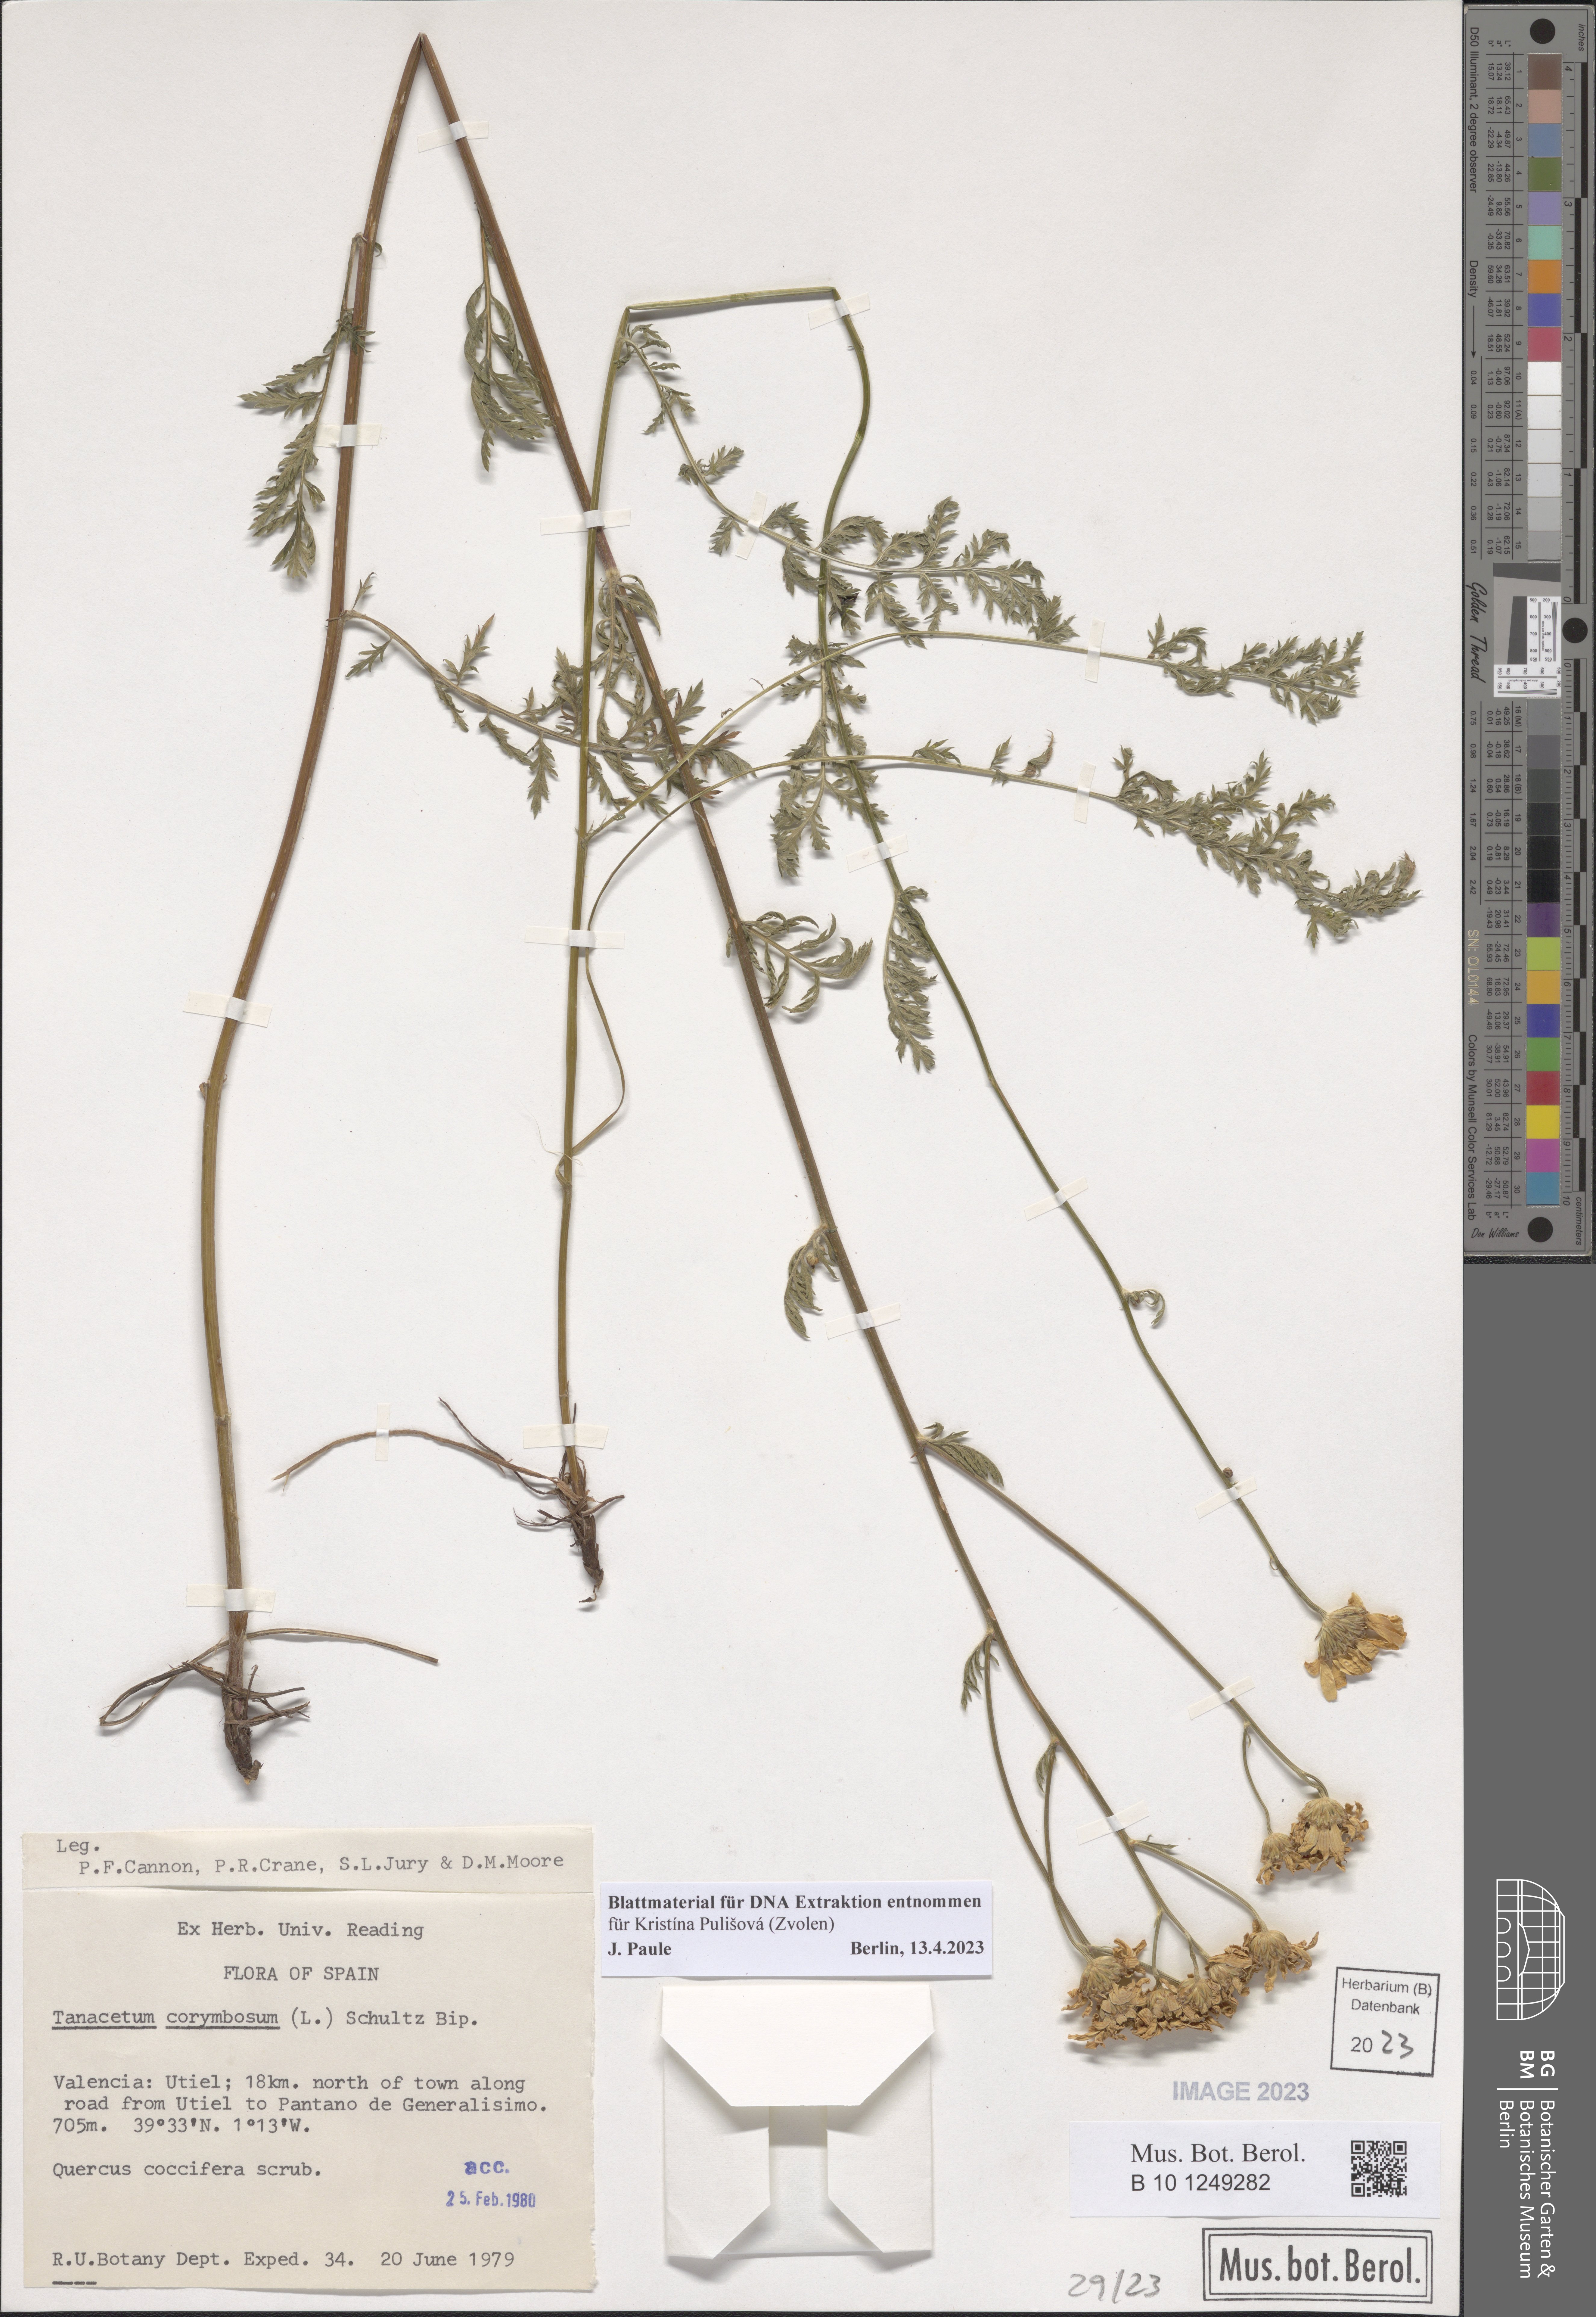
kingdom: Plantae
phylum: Tracheophyta
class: Magnoliopsida
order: Asterales
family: Asteraceae
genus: Tanacetum
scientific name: Tanacetum corymbosum
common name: Scentless feverfew
